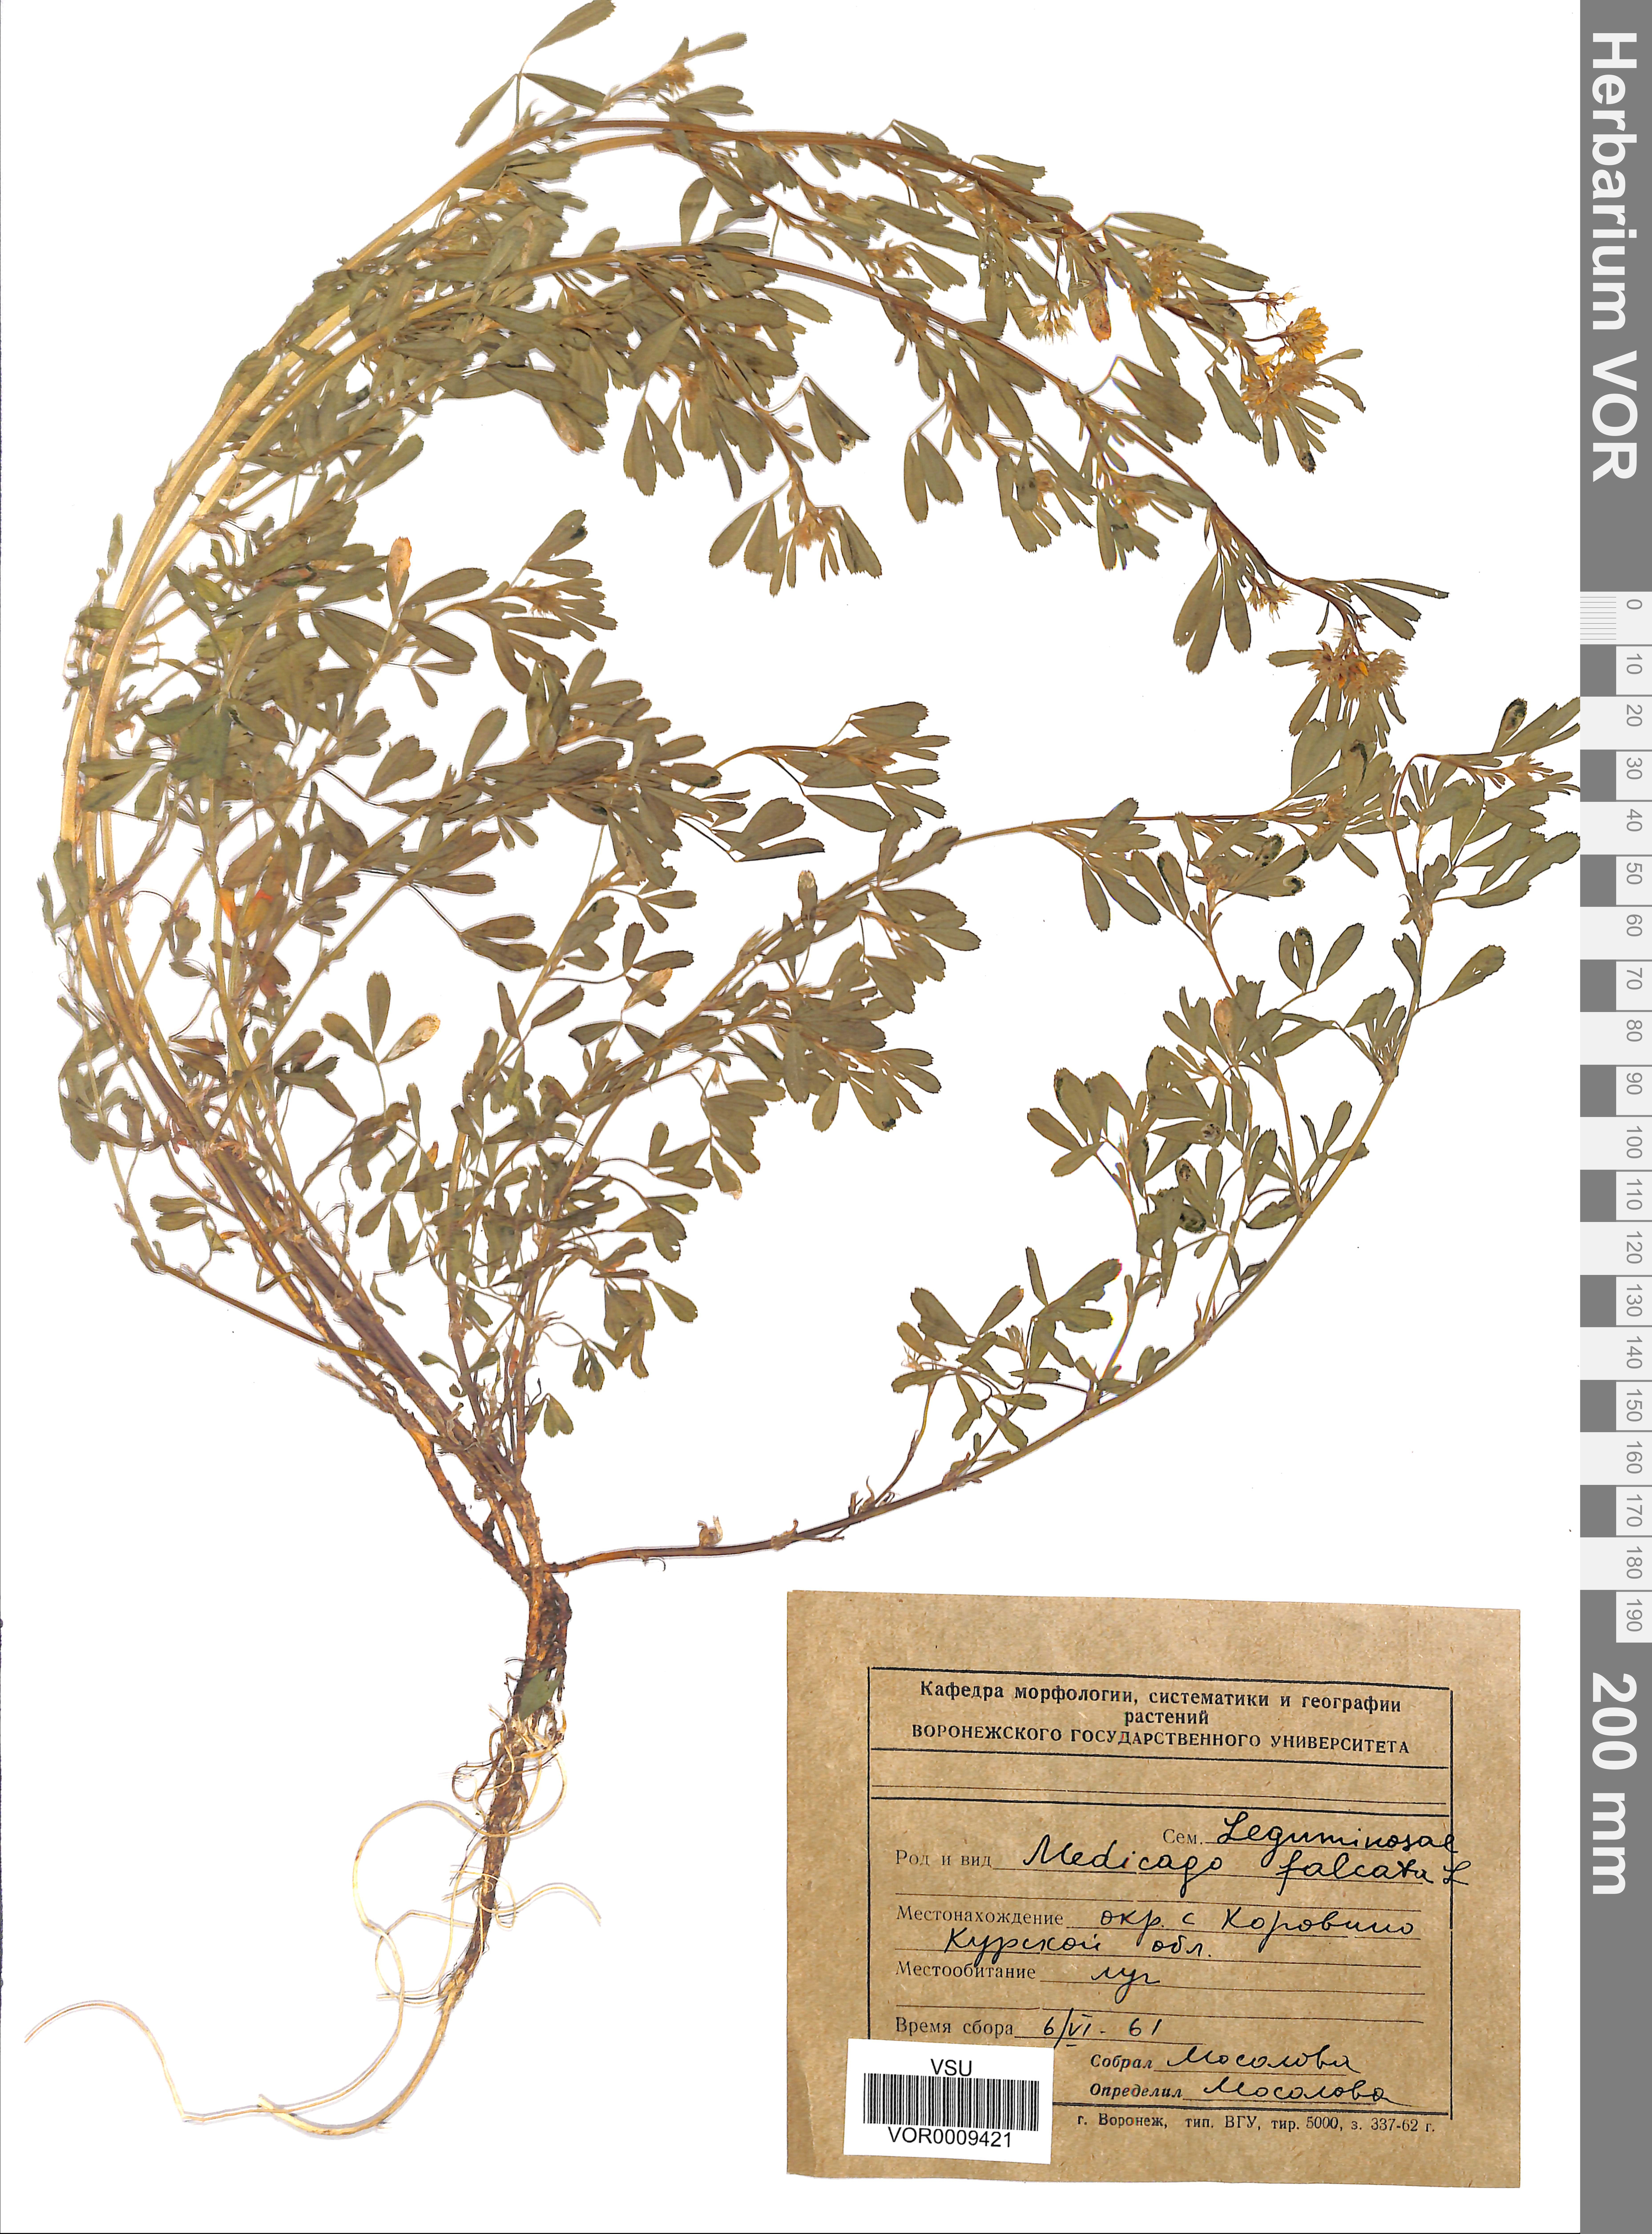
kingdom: Plantae
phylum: Tracheophyta
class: Magnoliopsida
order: Fabales
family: Fabaceae
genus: Medicago
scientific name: Medicago falcata
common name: Sickle medick
